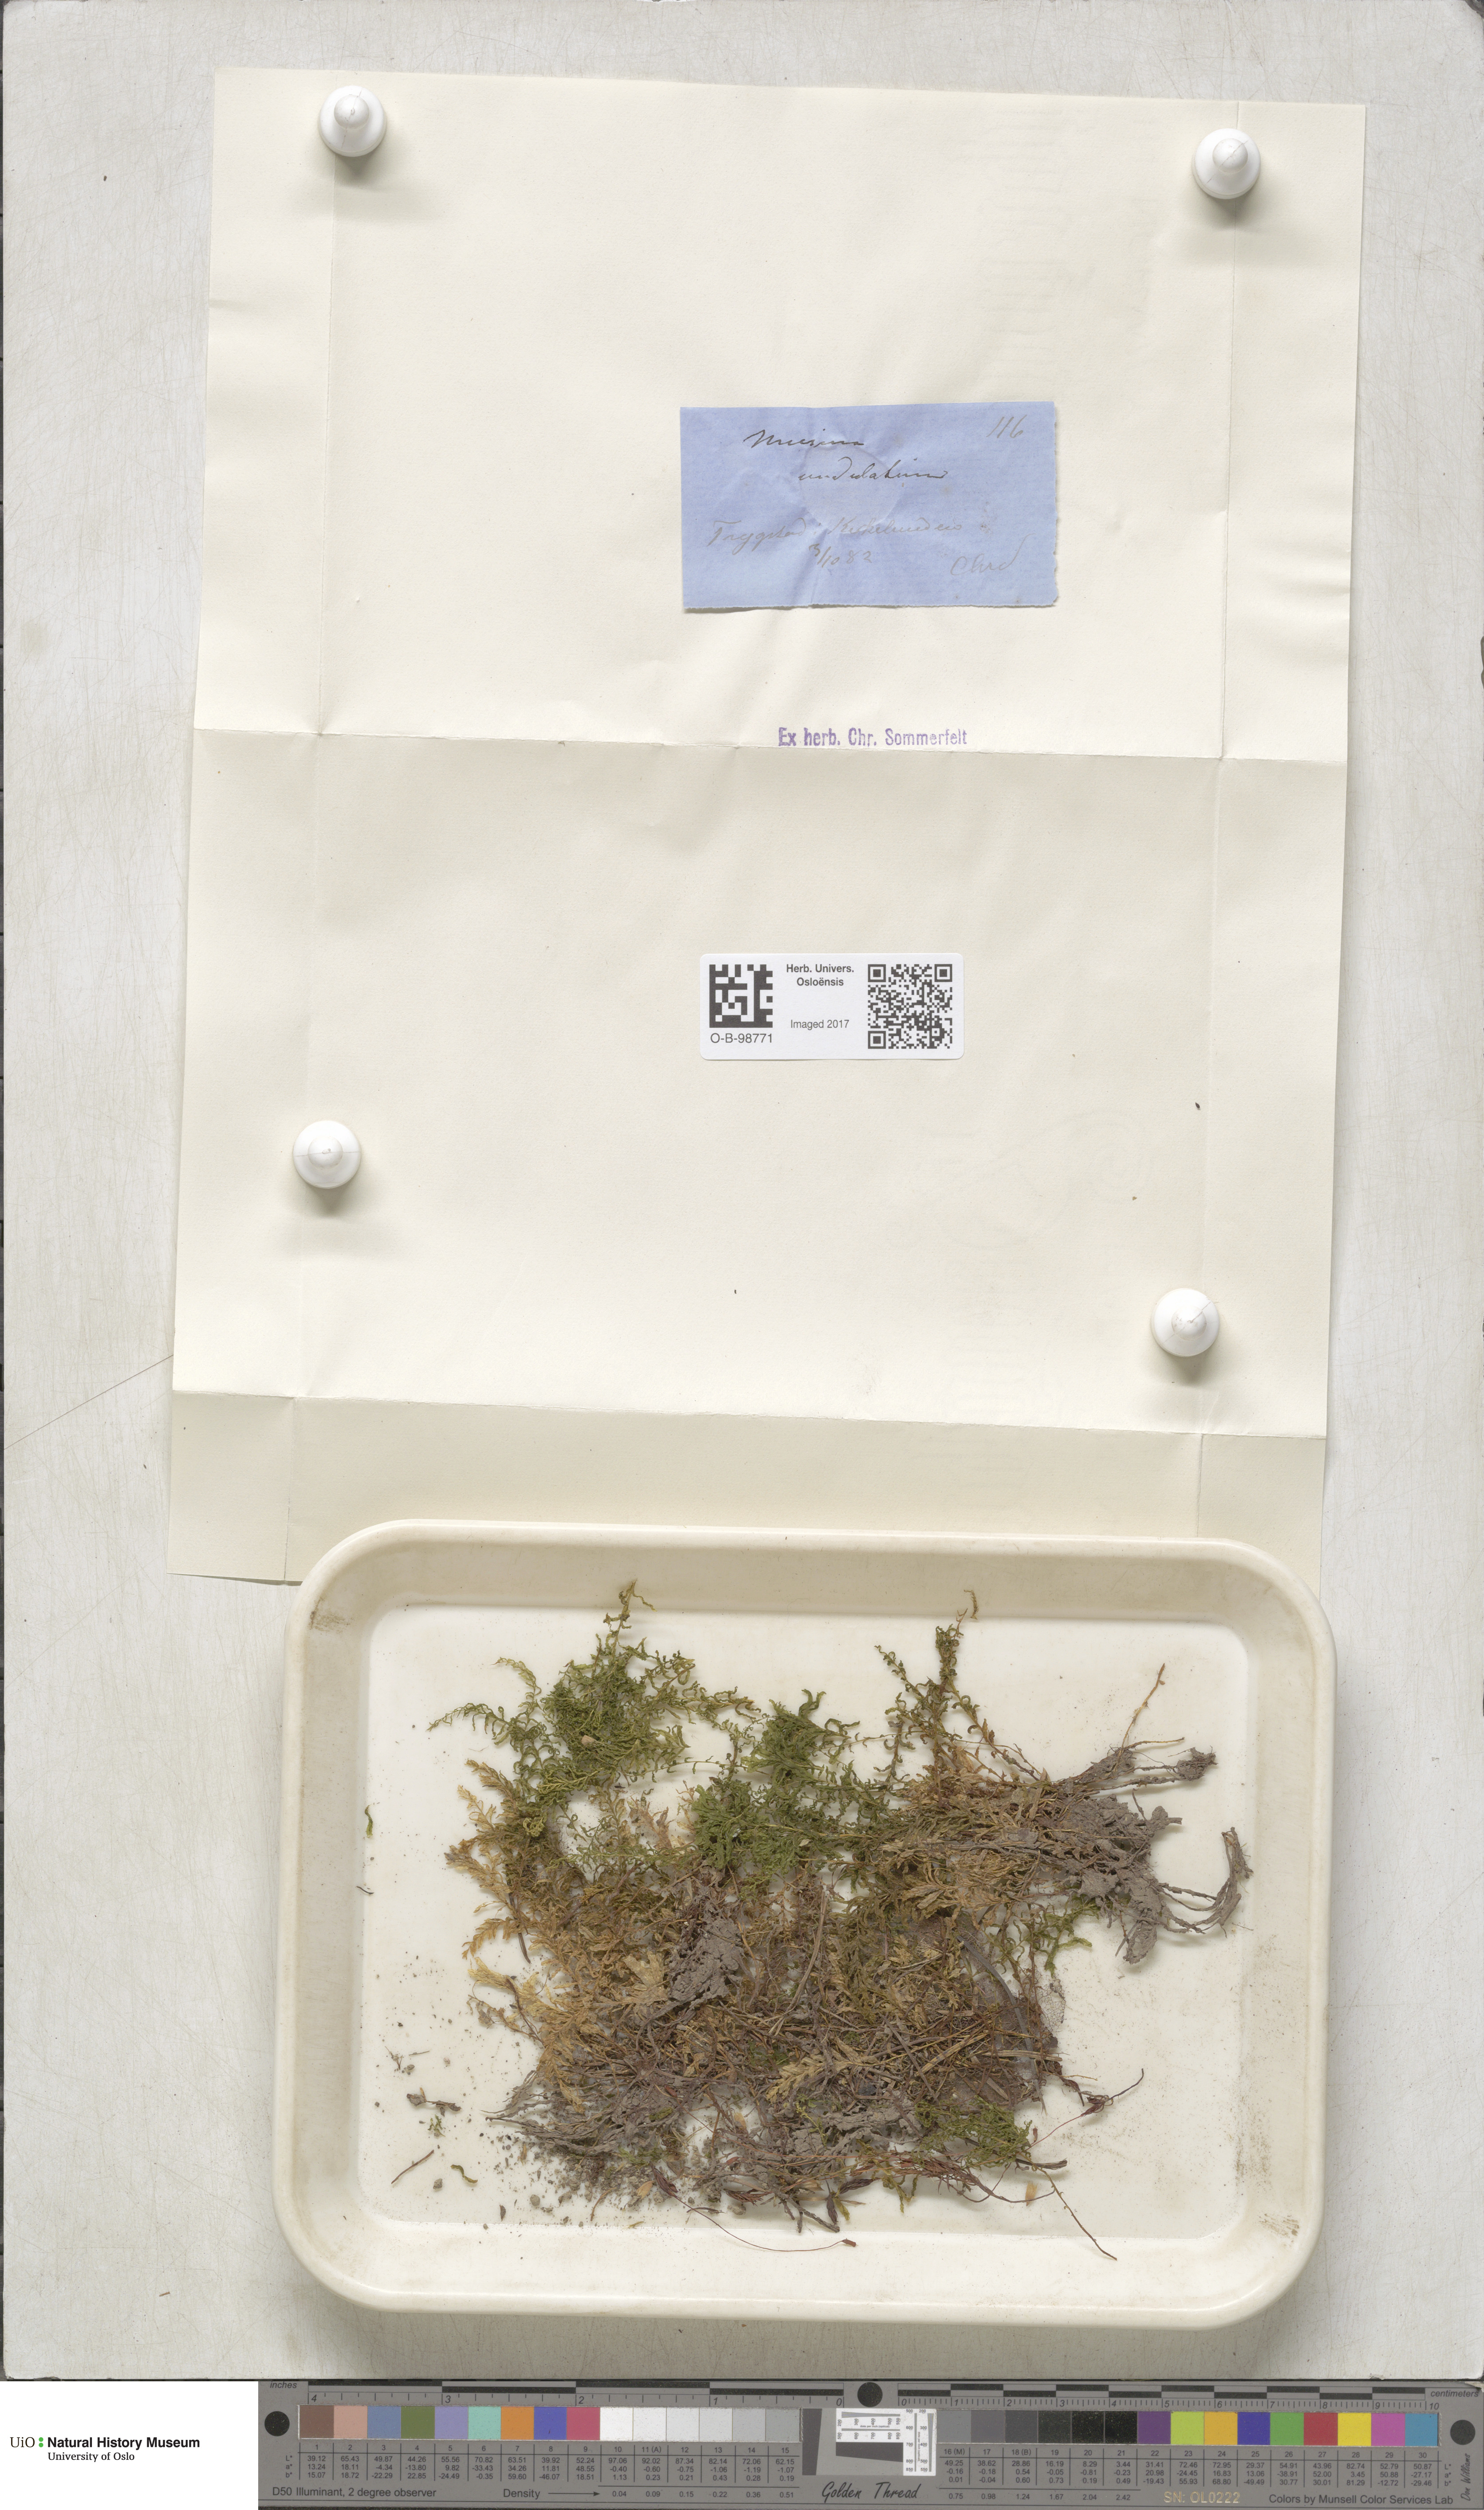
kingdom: Plantae
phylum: Bryophyta
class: Bryopsida
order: Bryales
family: Mniaceae
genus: Plagiomnium
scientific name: Plagiomnium undulatum
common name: Hart's-tongue thyme-moss
